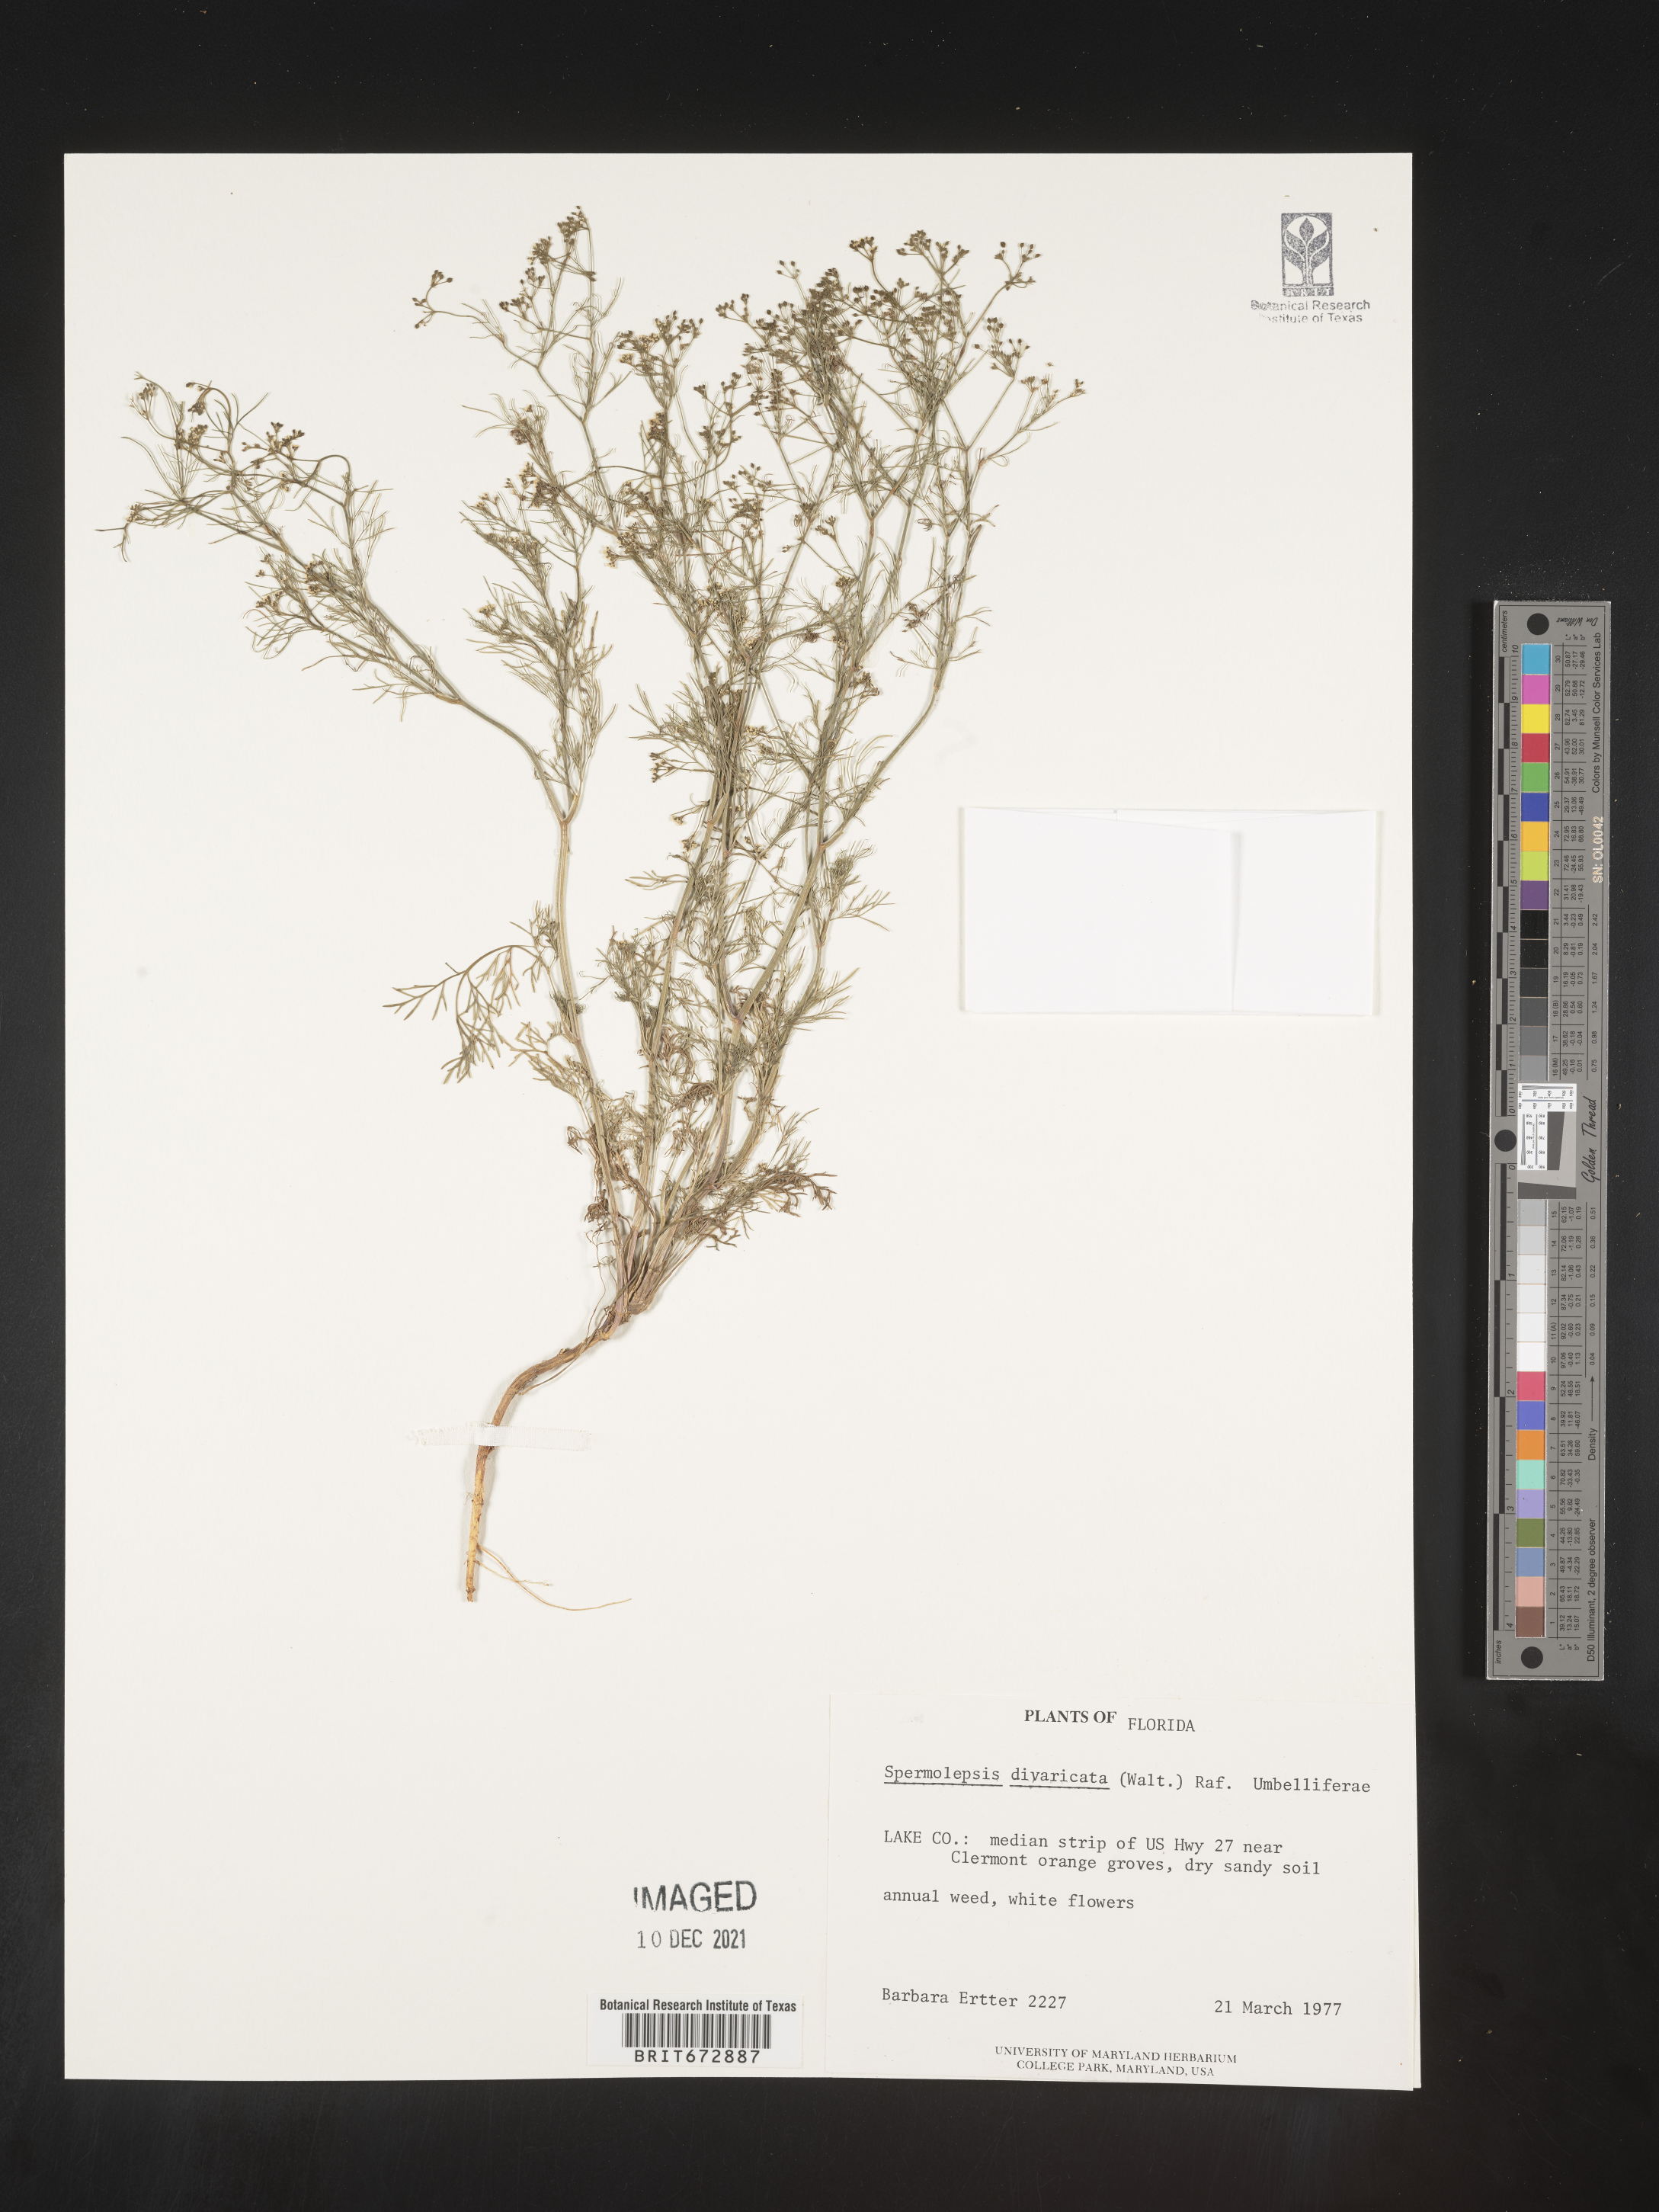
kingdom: Plantae
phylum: Tracheophyta
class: Magnoliopsida
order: Apiales
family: Apiaceae
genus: Spermolepis
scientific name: Spermolepis divaricata
